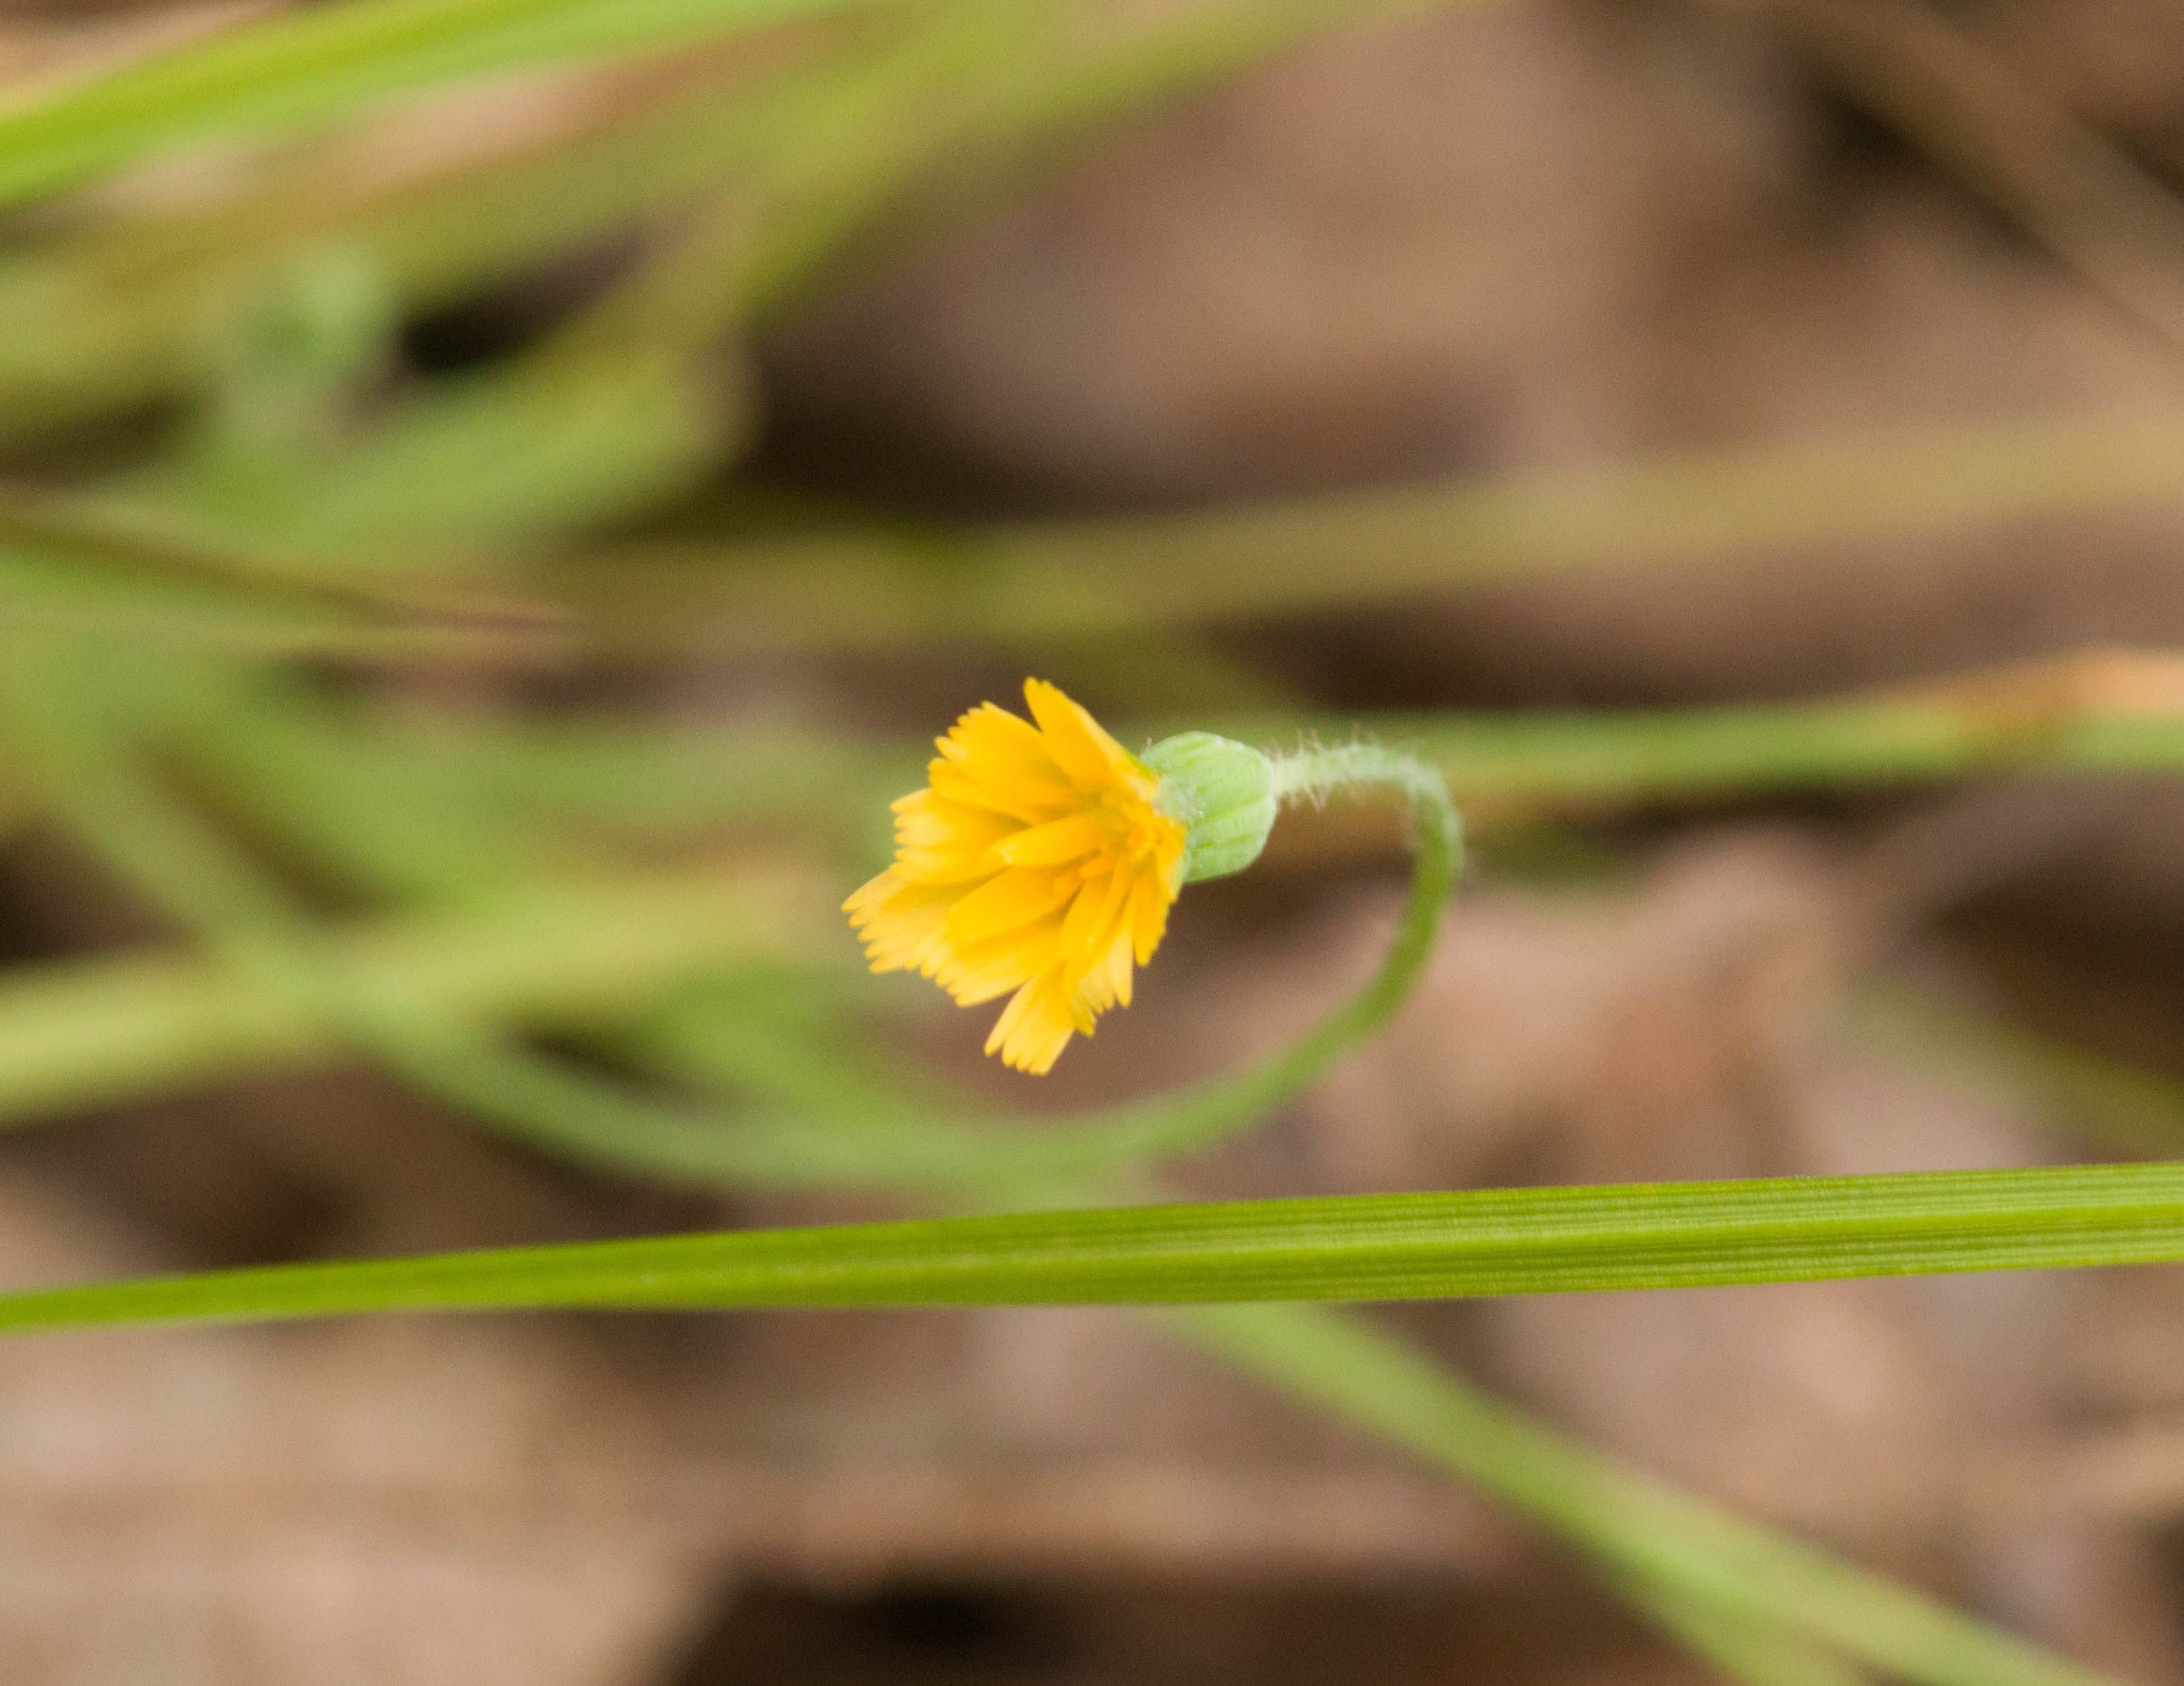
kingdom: Plantae
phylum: Tracheophyta
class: Magnoliopsida
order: Asterales
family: Asteraceae
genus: Krigia
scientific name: Krigia virginica
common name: Virginia dwarf-dandelion
